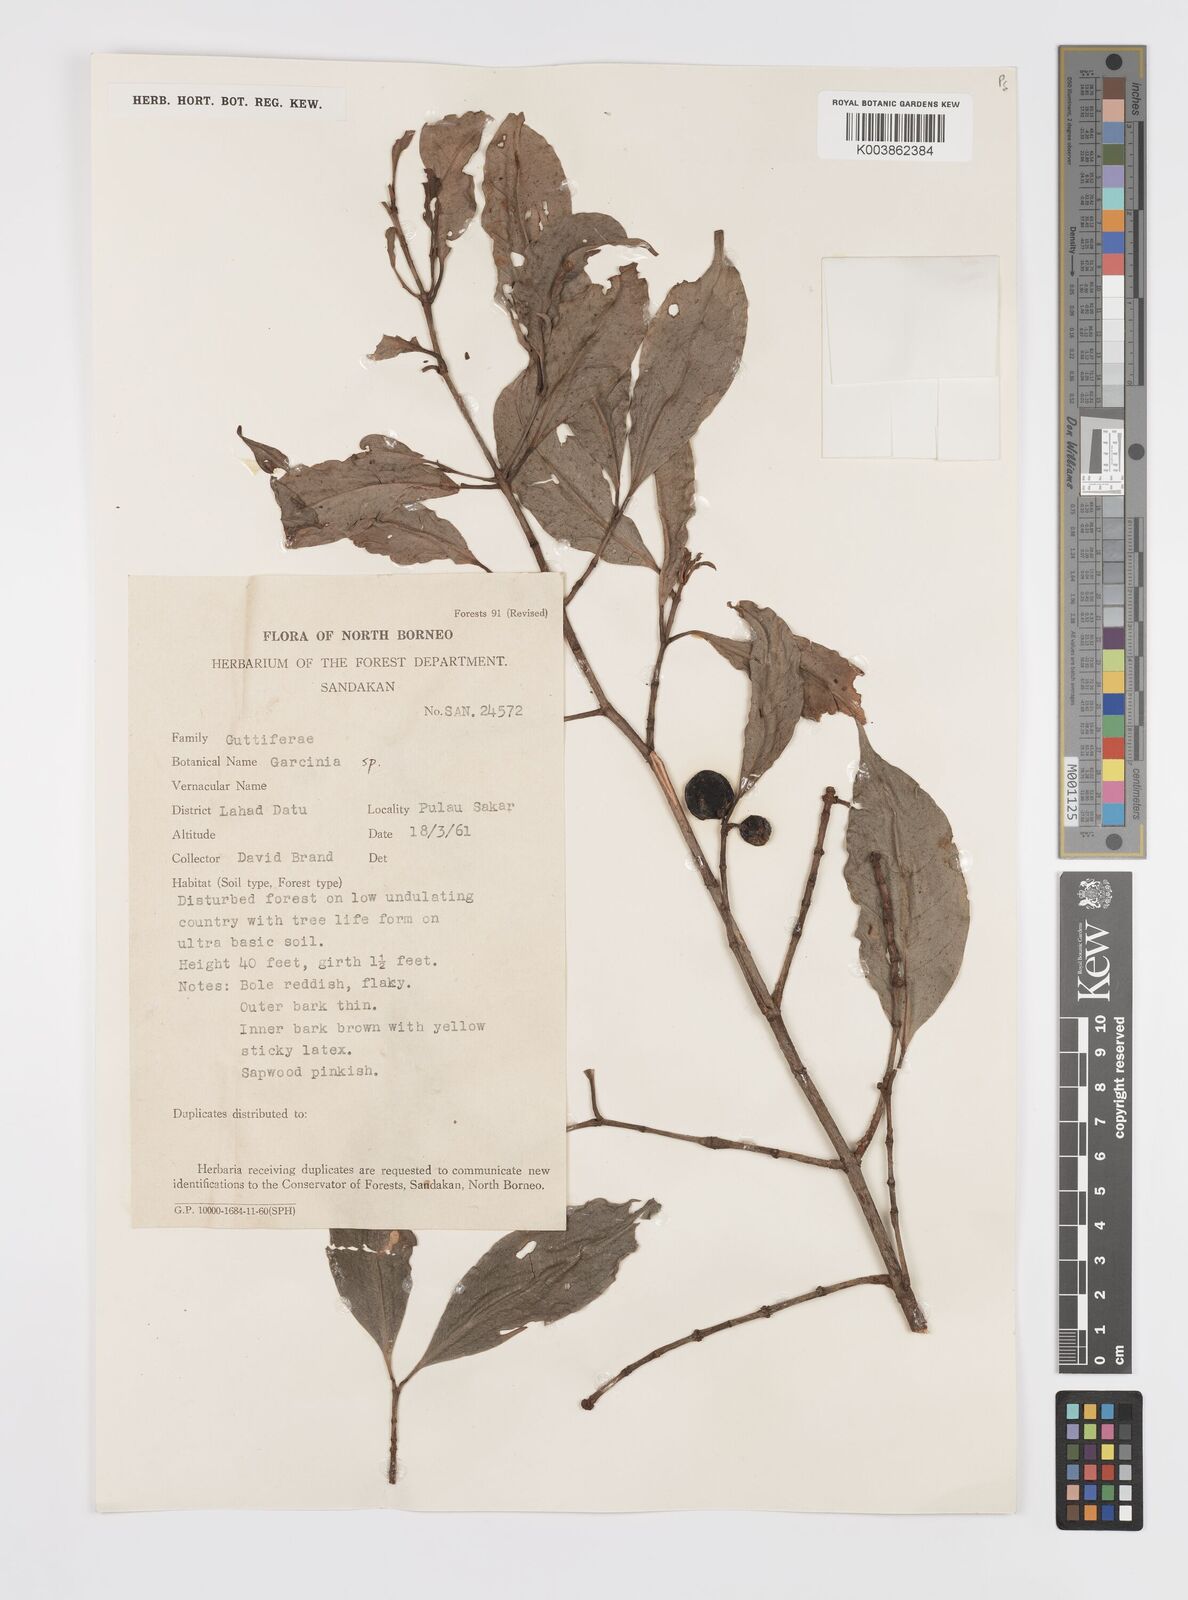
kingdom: Plantae
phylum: Tracheophyta
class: Magnoliopsida
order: Malpighiales
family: Clusiaceae
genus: Garcinia
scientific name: Garcinia
